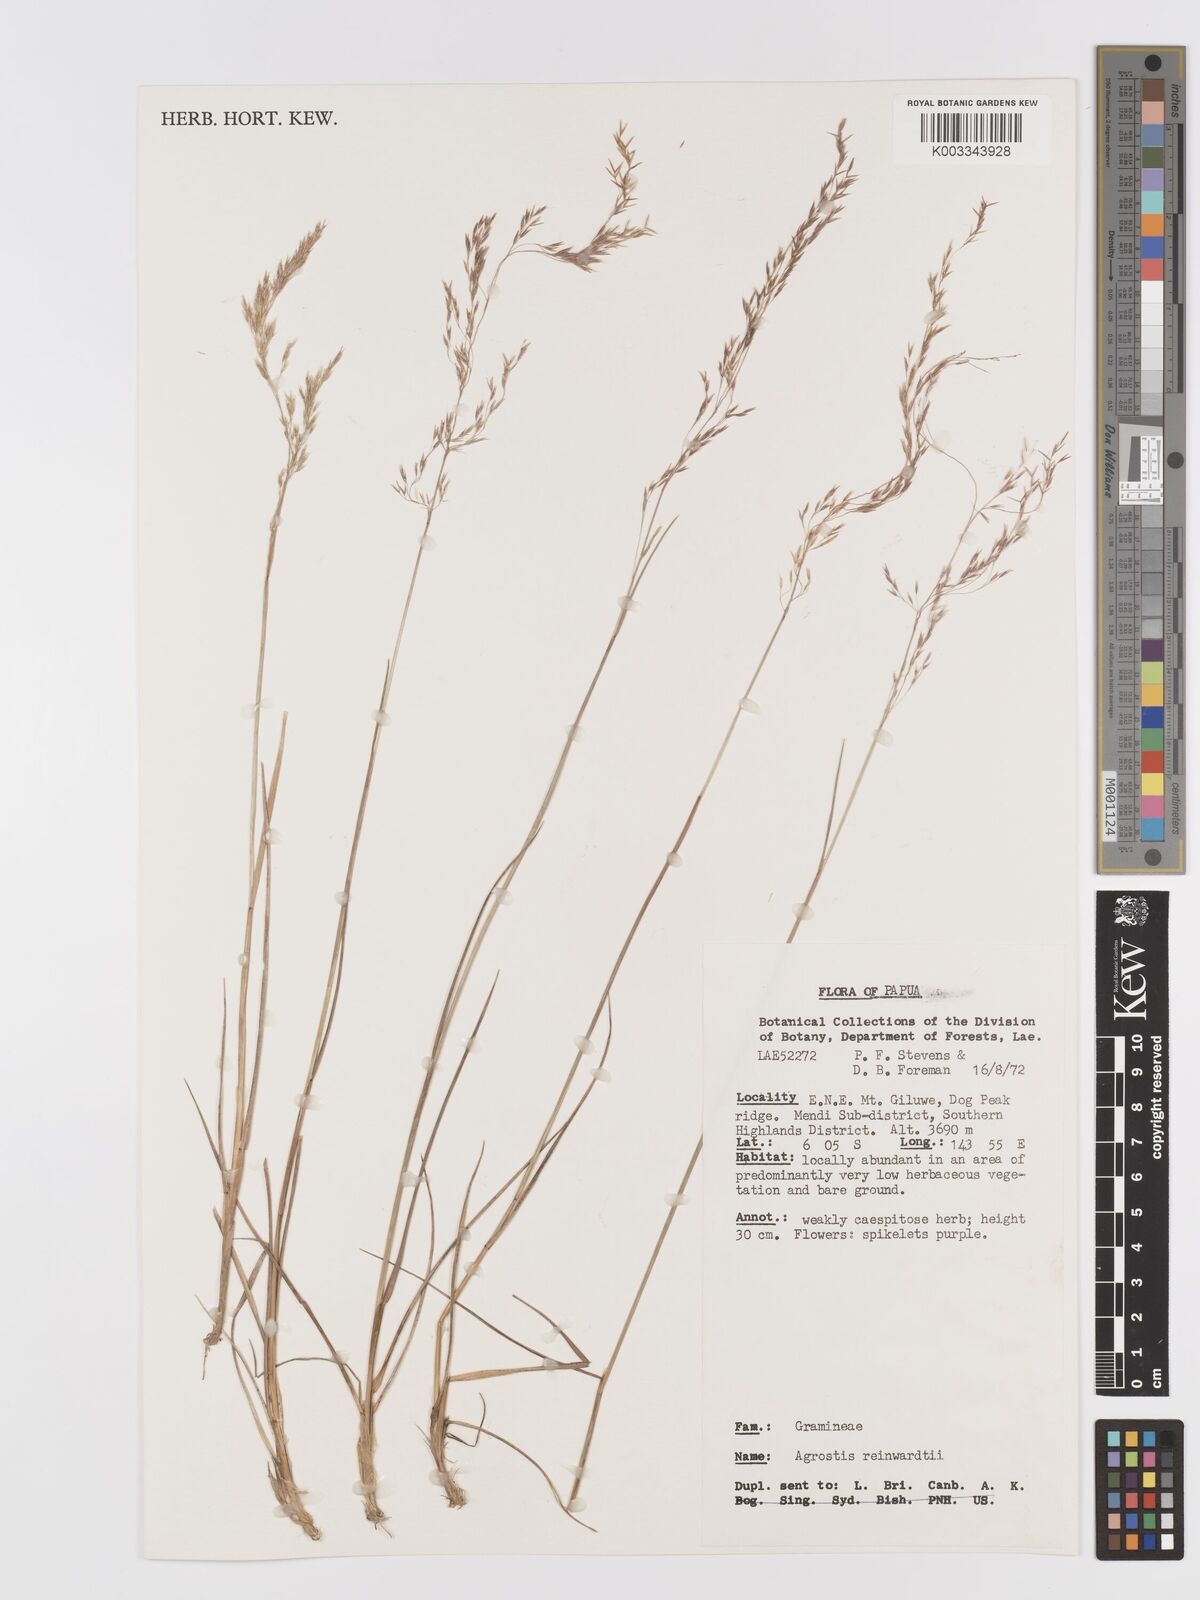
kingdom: Plantae
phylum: Tracheophyta
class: Liliopsida
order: Poales
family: Poaceae
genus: Agrostis
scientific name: Agrostis infirma
